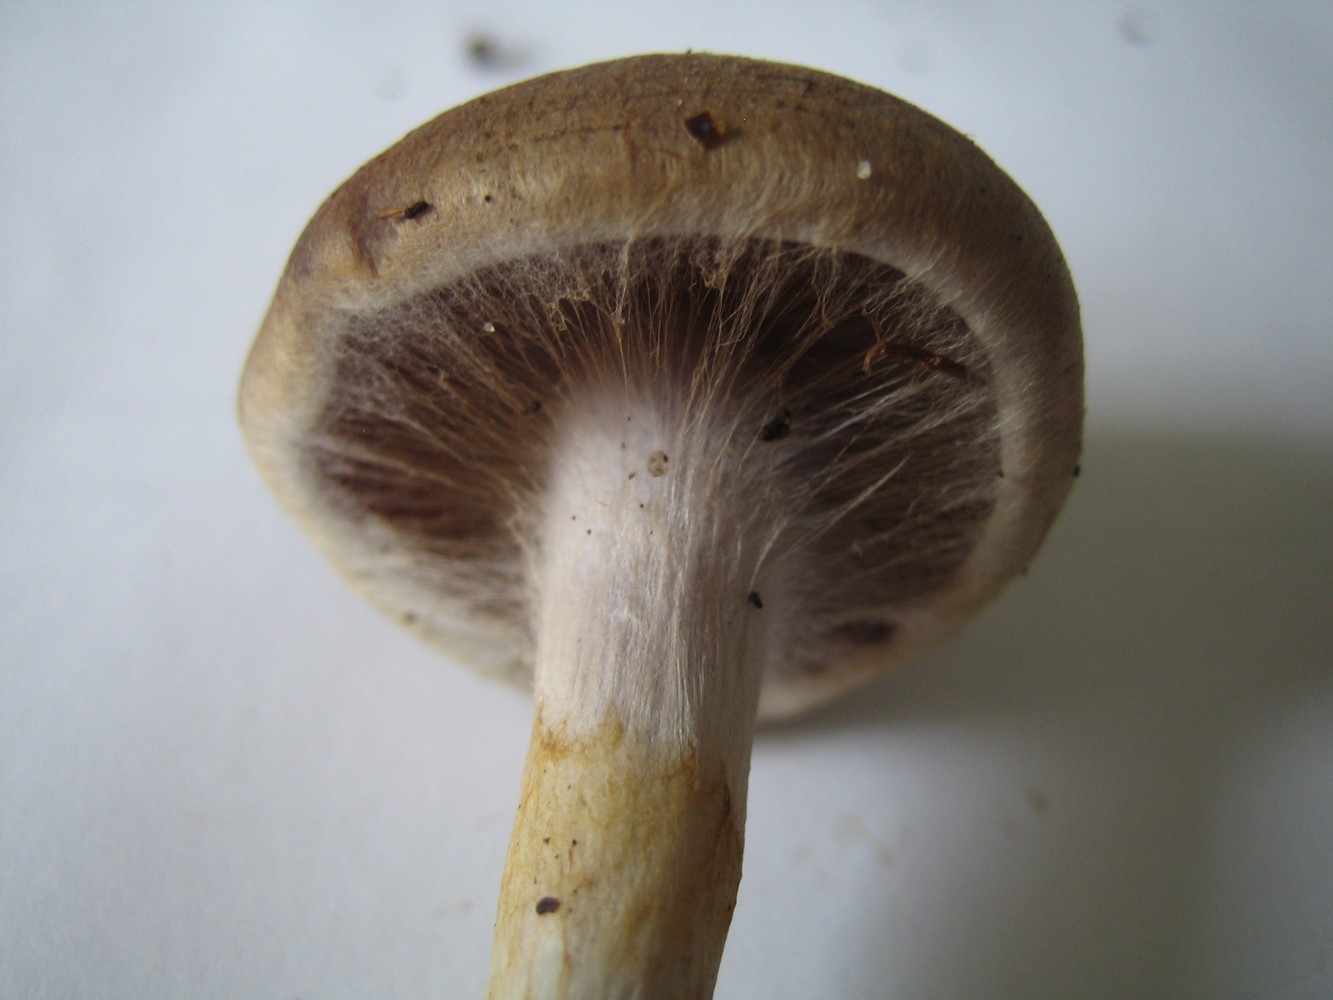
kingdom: Fungi
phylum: Basidiomycota
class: Agaricomycetes
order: Agaricales
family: Cortinariaceae
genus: Cortinarius
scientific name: Cortinarius
